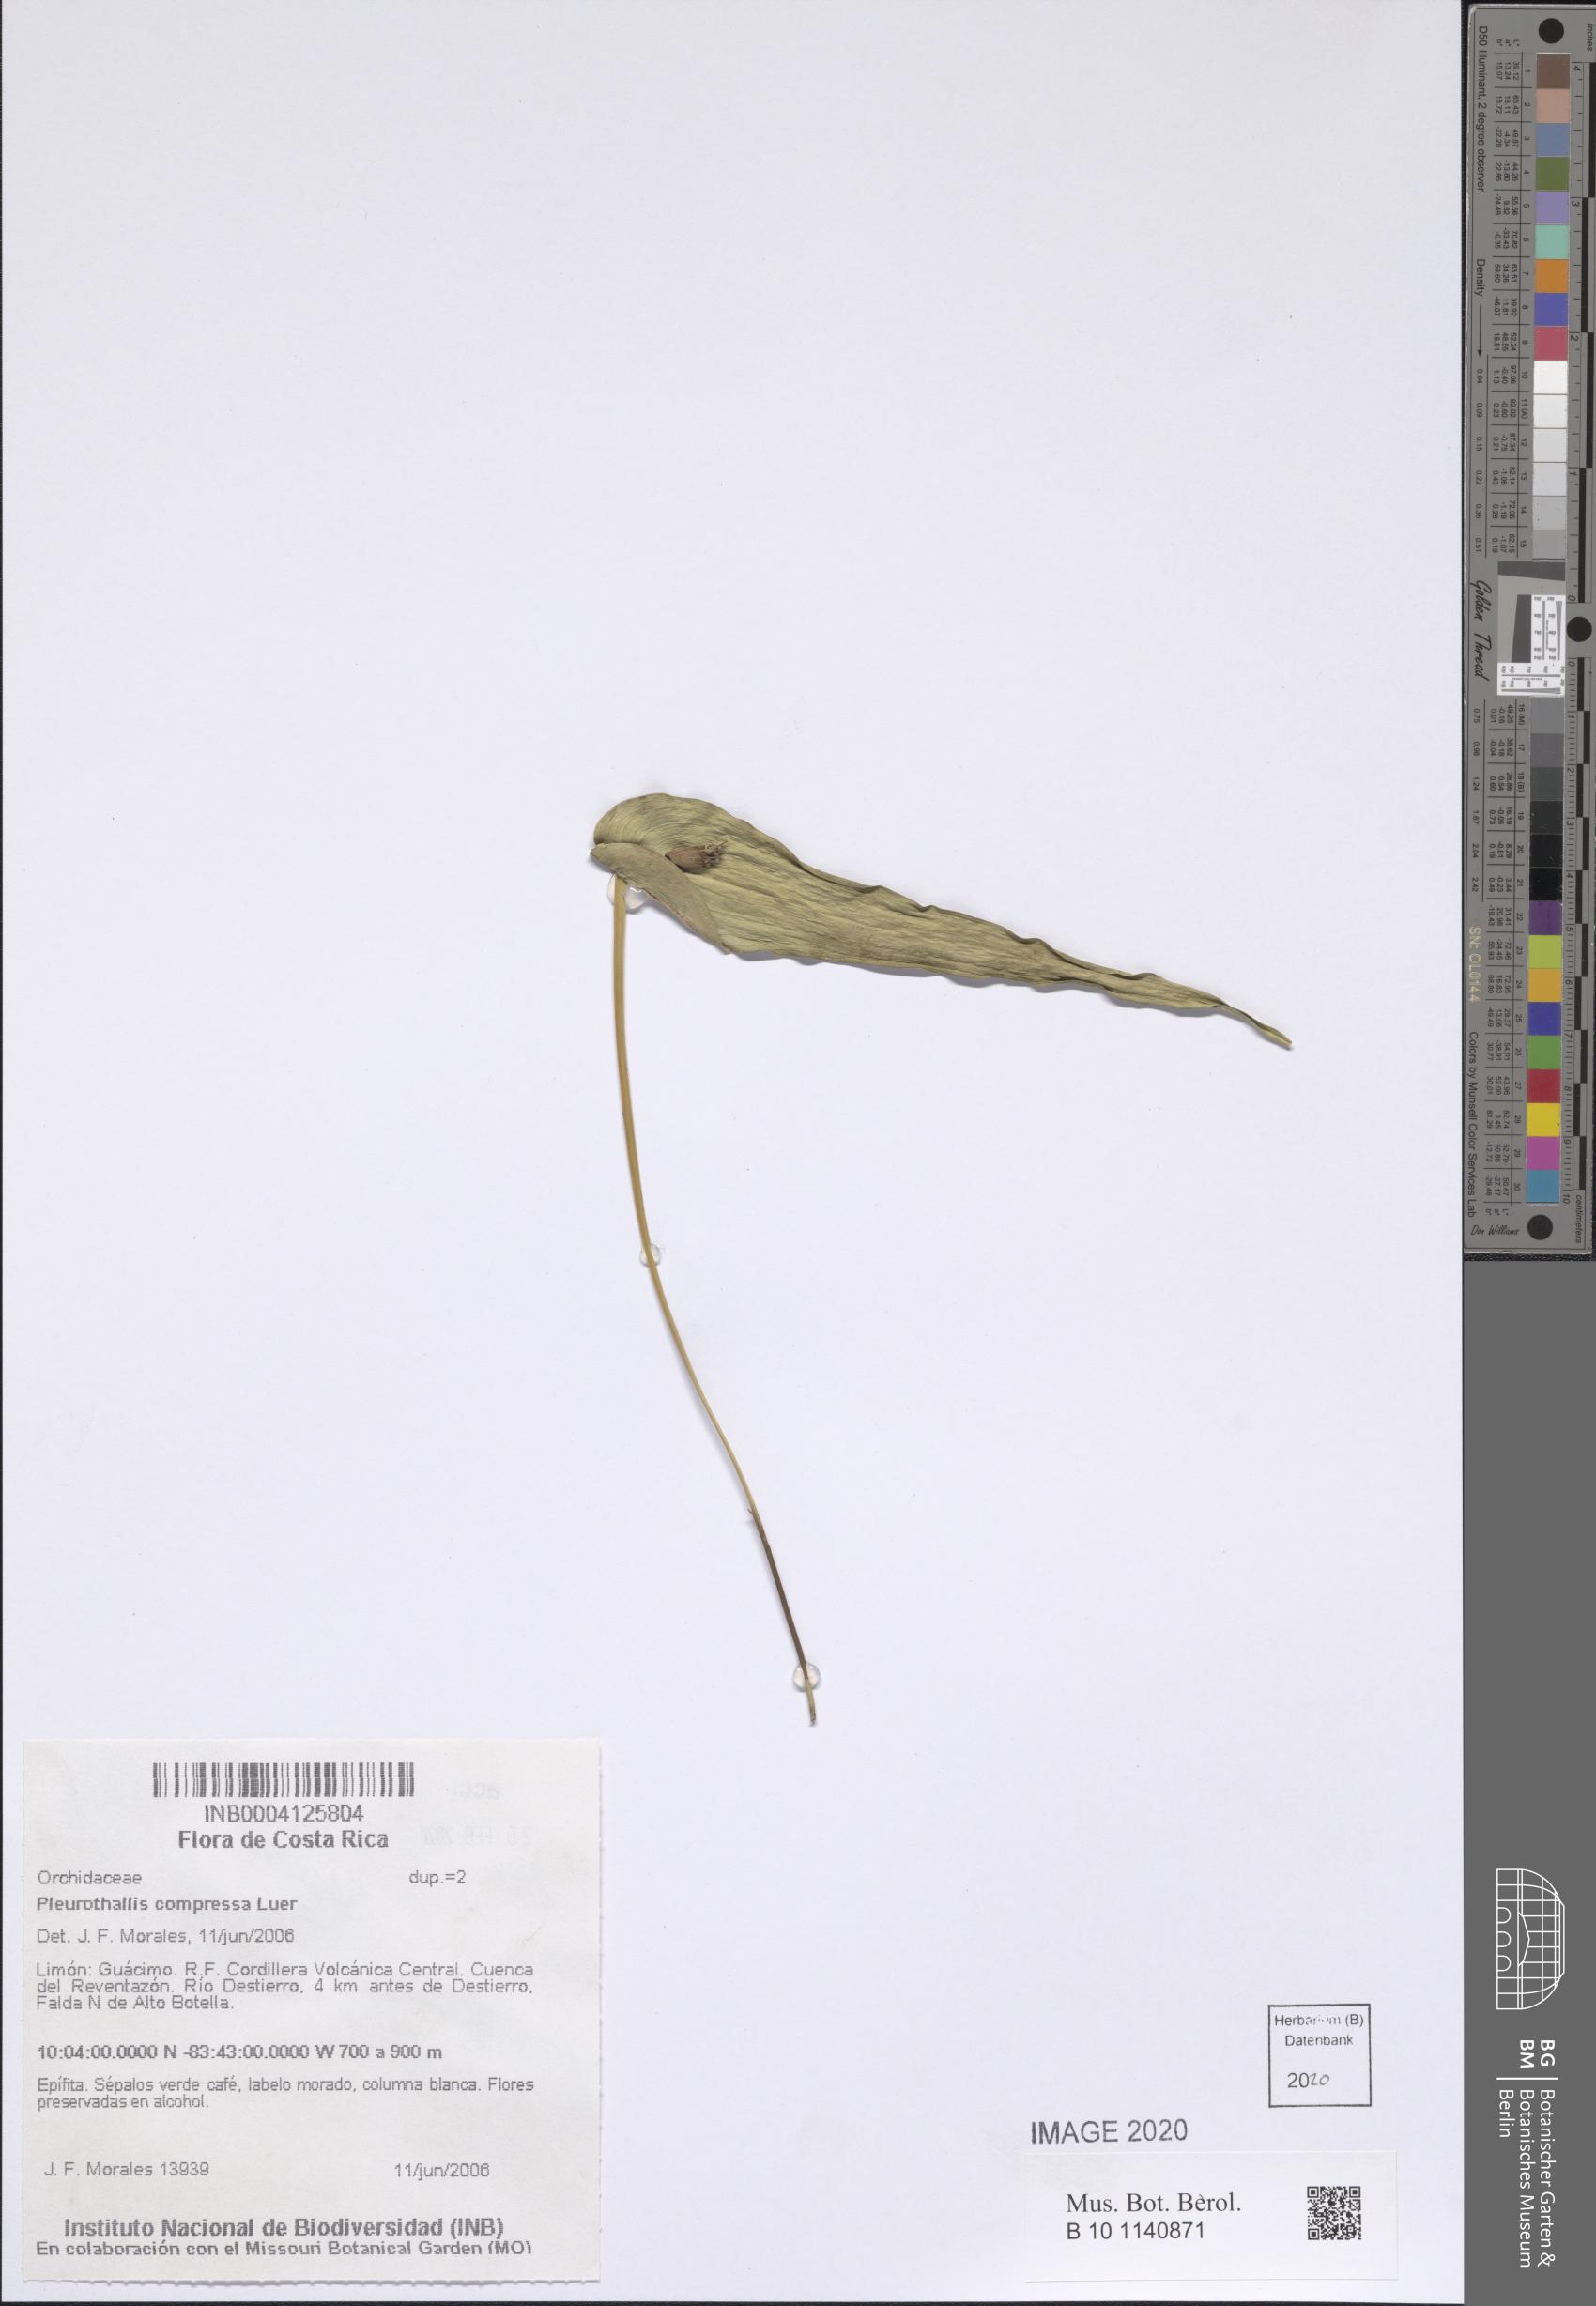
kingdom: Plantae
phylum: Tracheophyta
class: Liliopsida
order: Asparagales
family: Orchidaceae
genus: Pleurothallis
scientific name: Pleurothallis compressa
